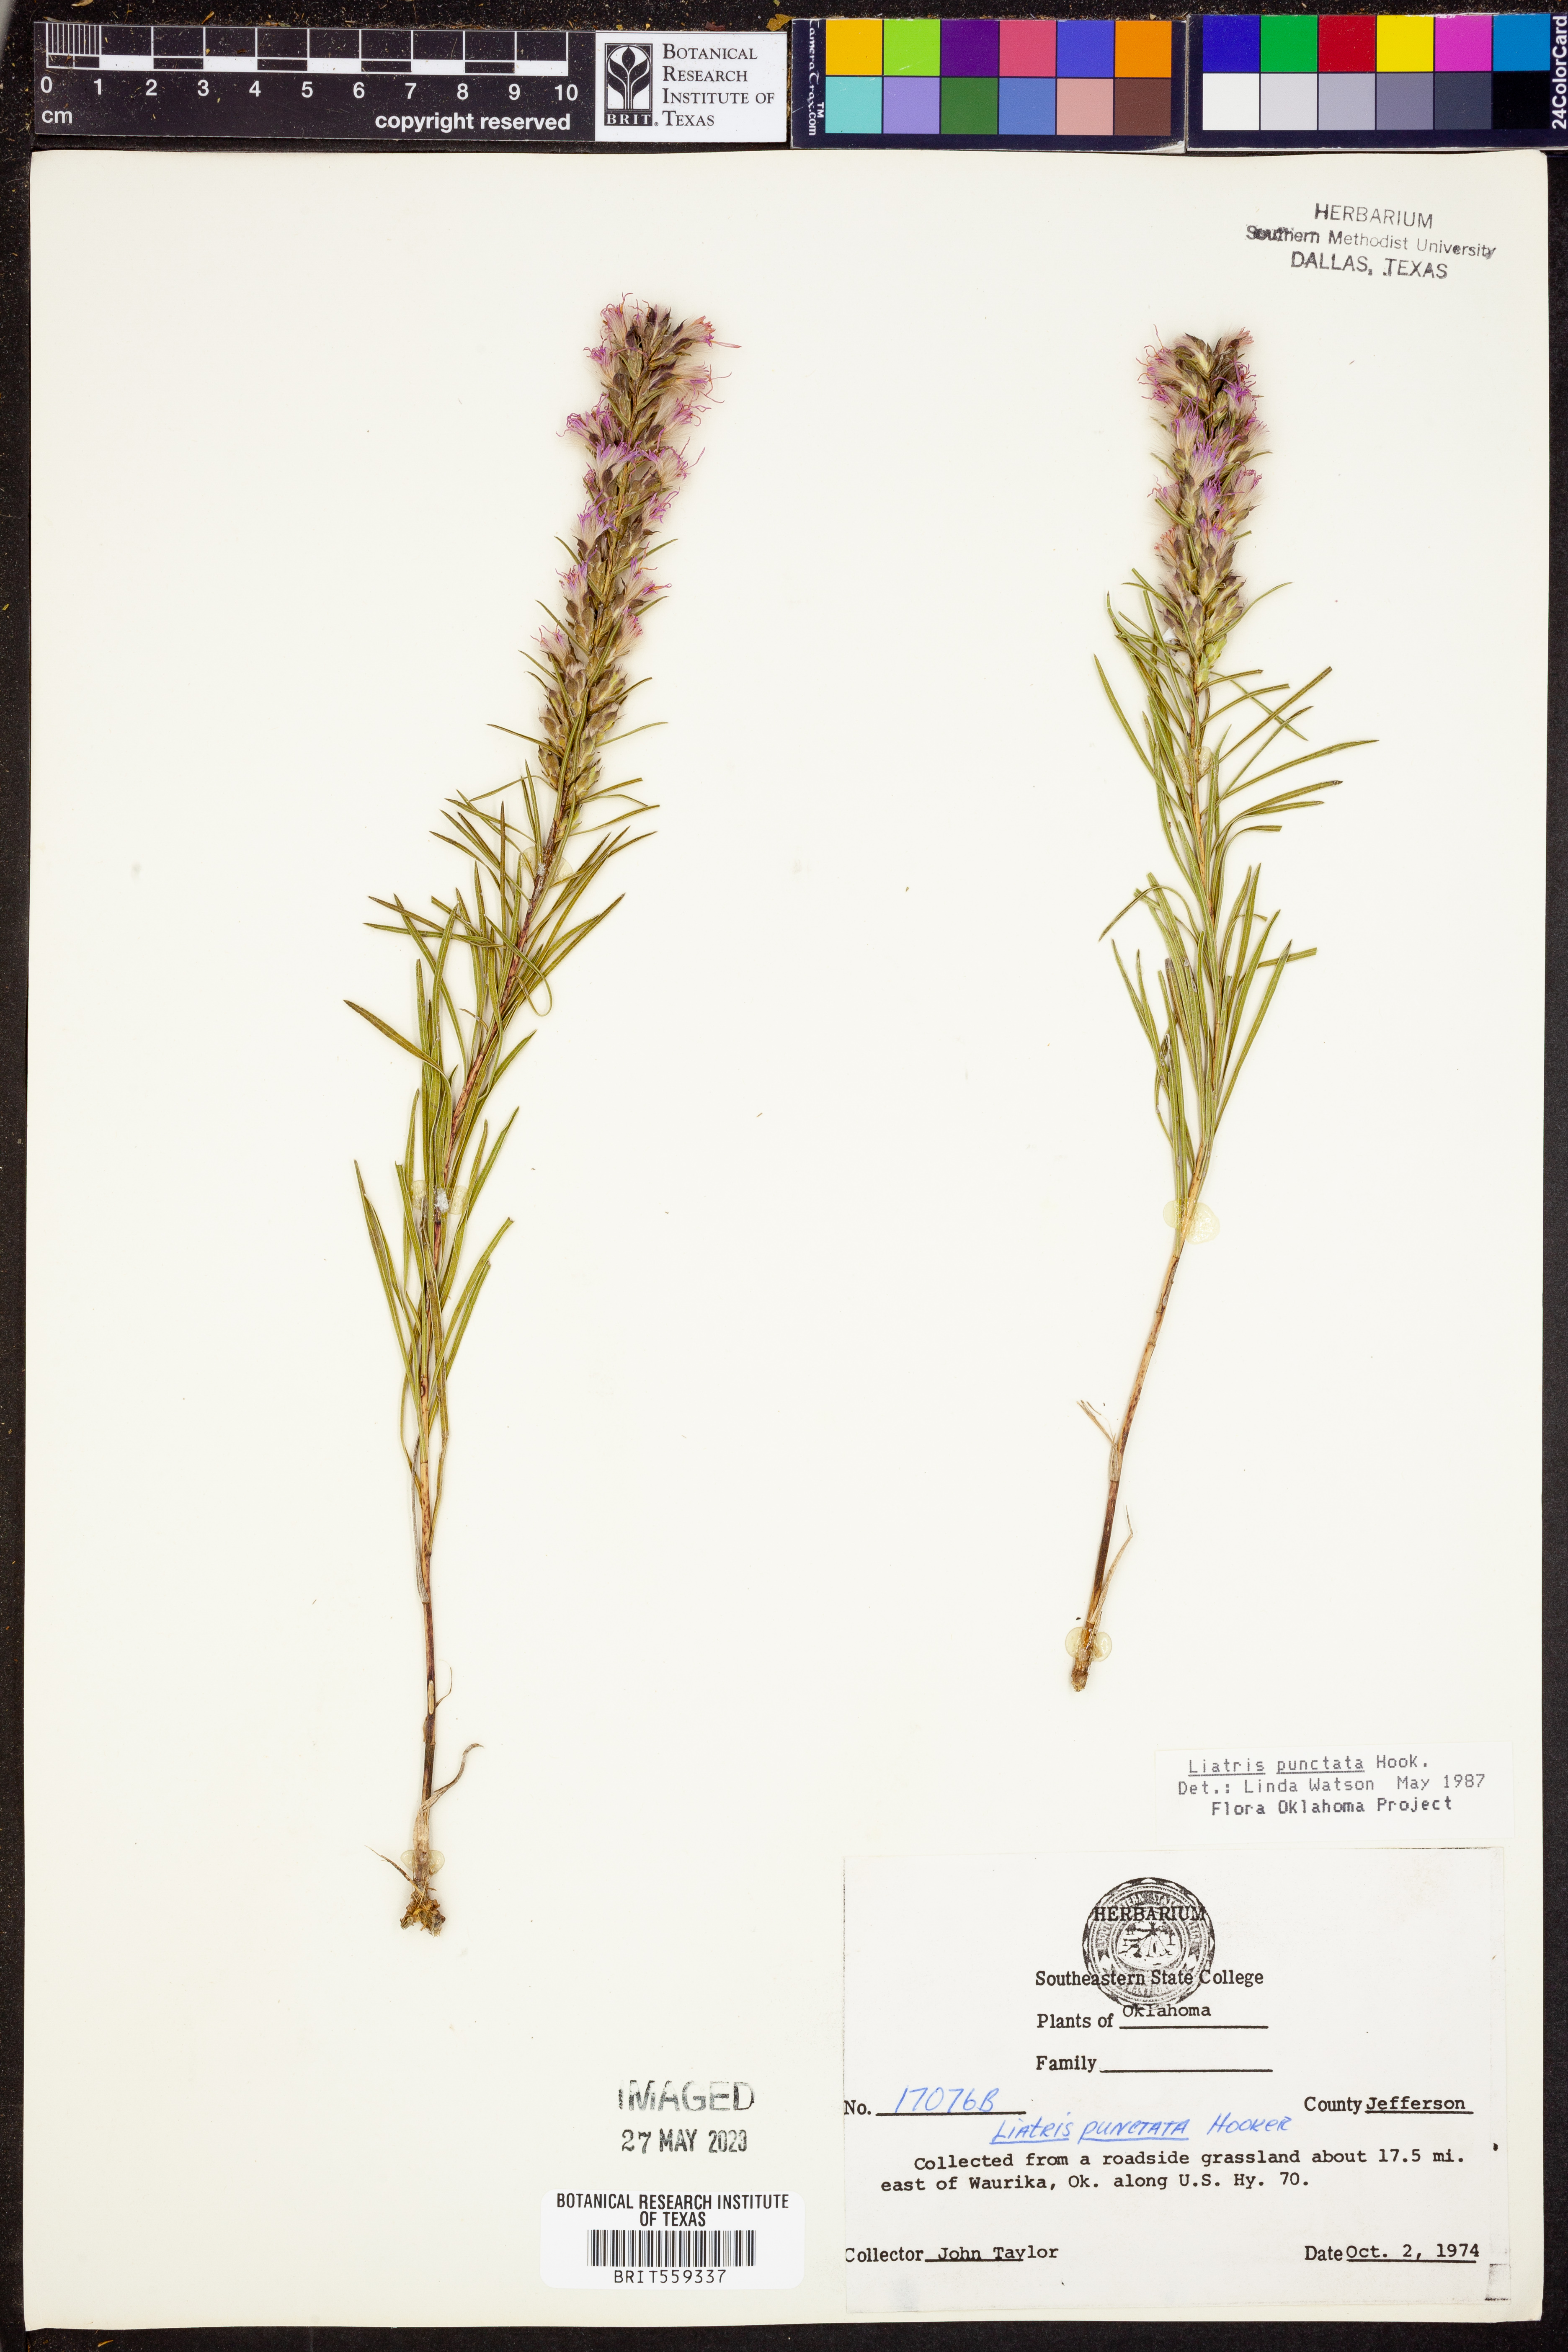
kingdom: Plantae
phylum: Tracheophyta
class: Magnoliopsida
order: Asterales
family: Asteraceae
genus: Liatris
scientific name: Liatris punctata
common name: Dotted gayfeather
